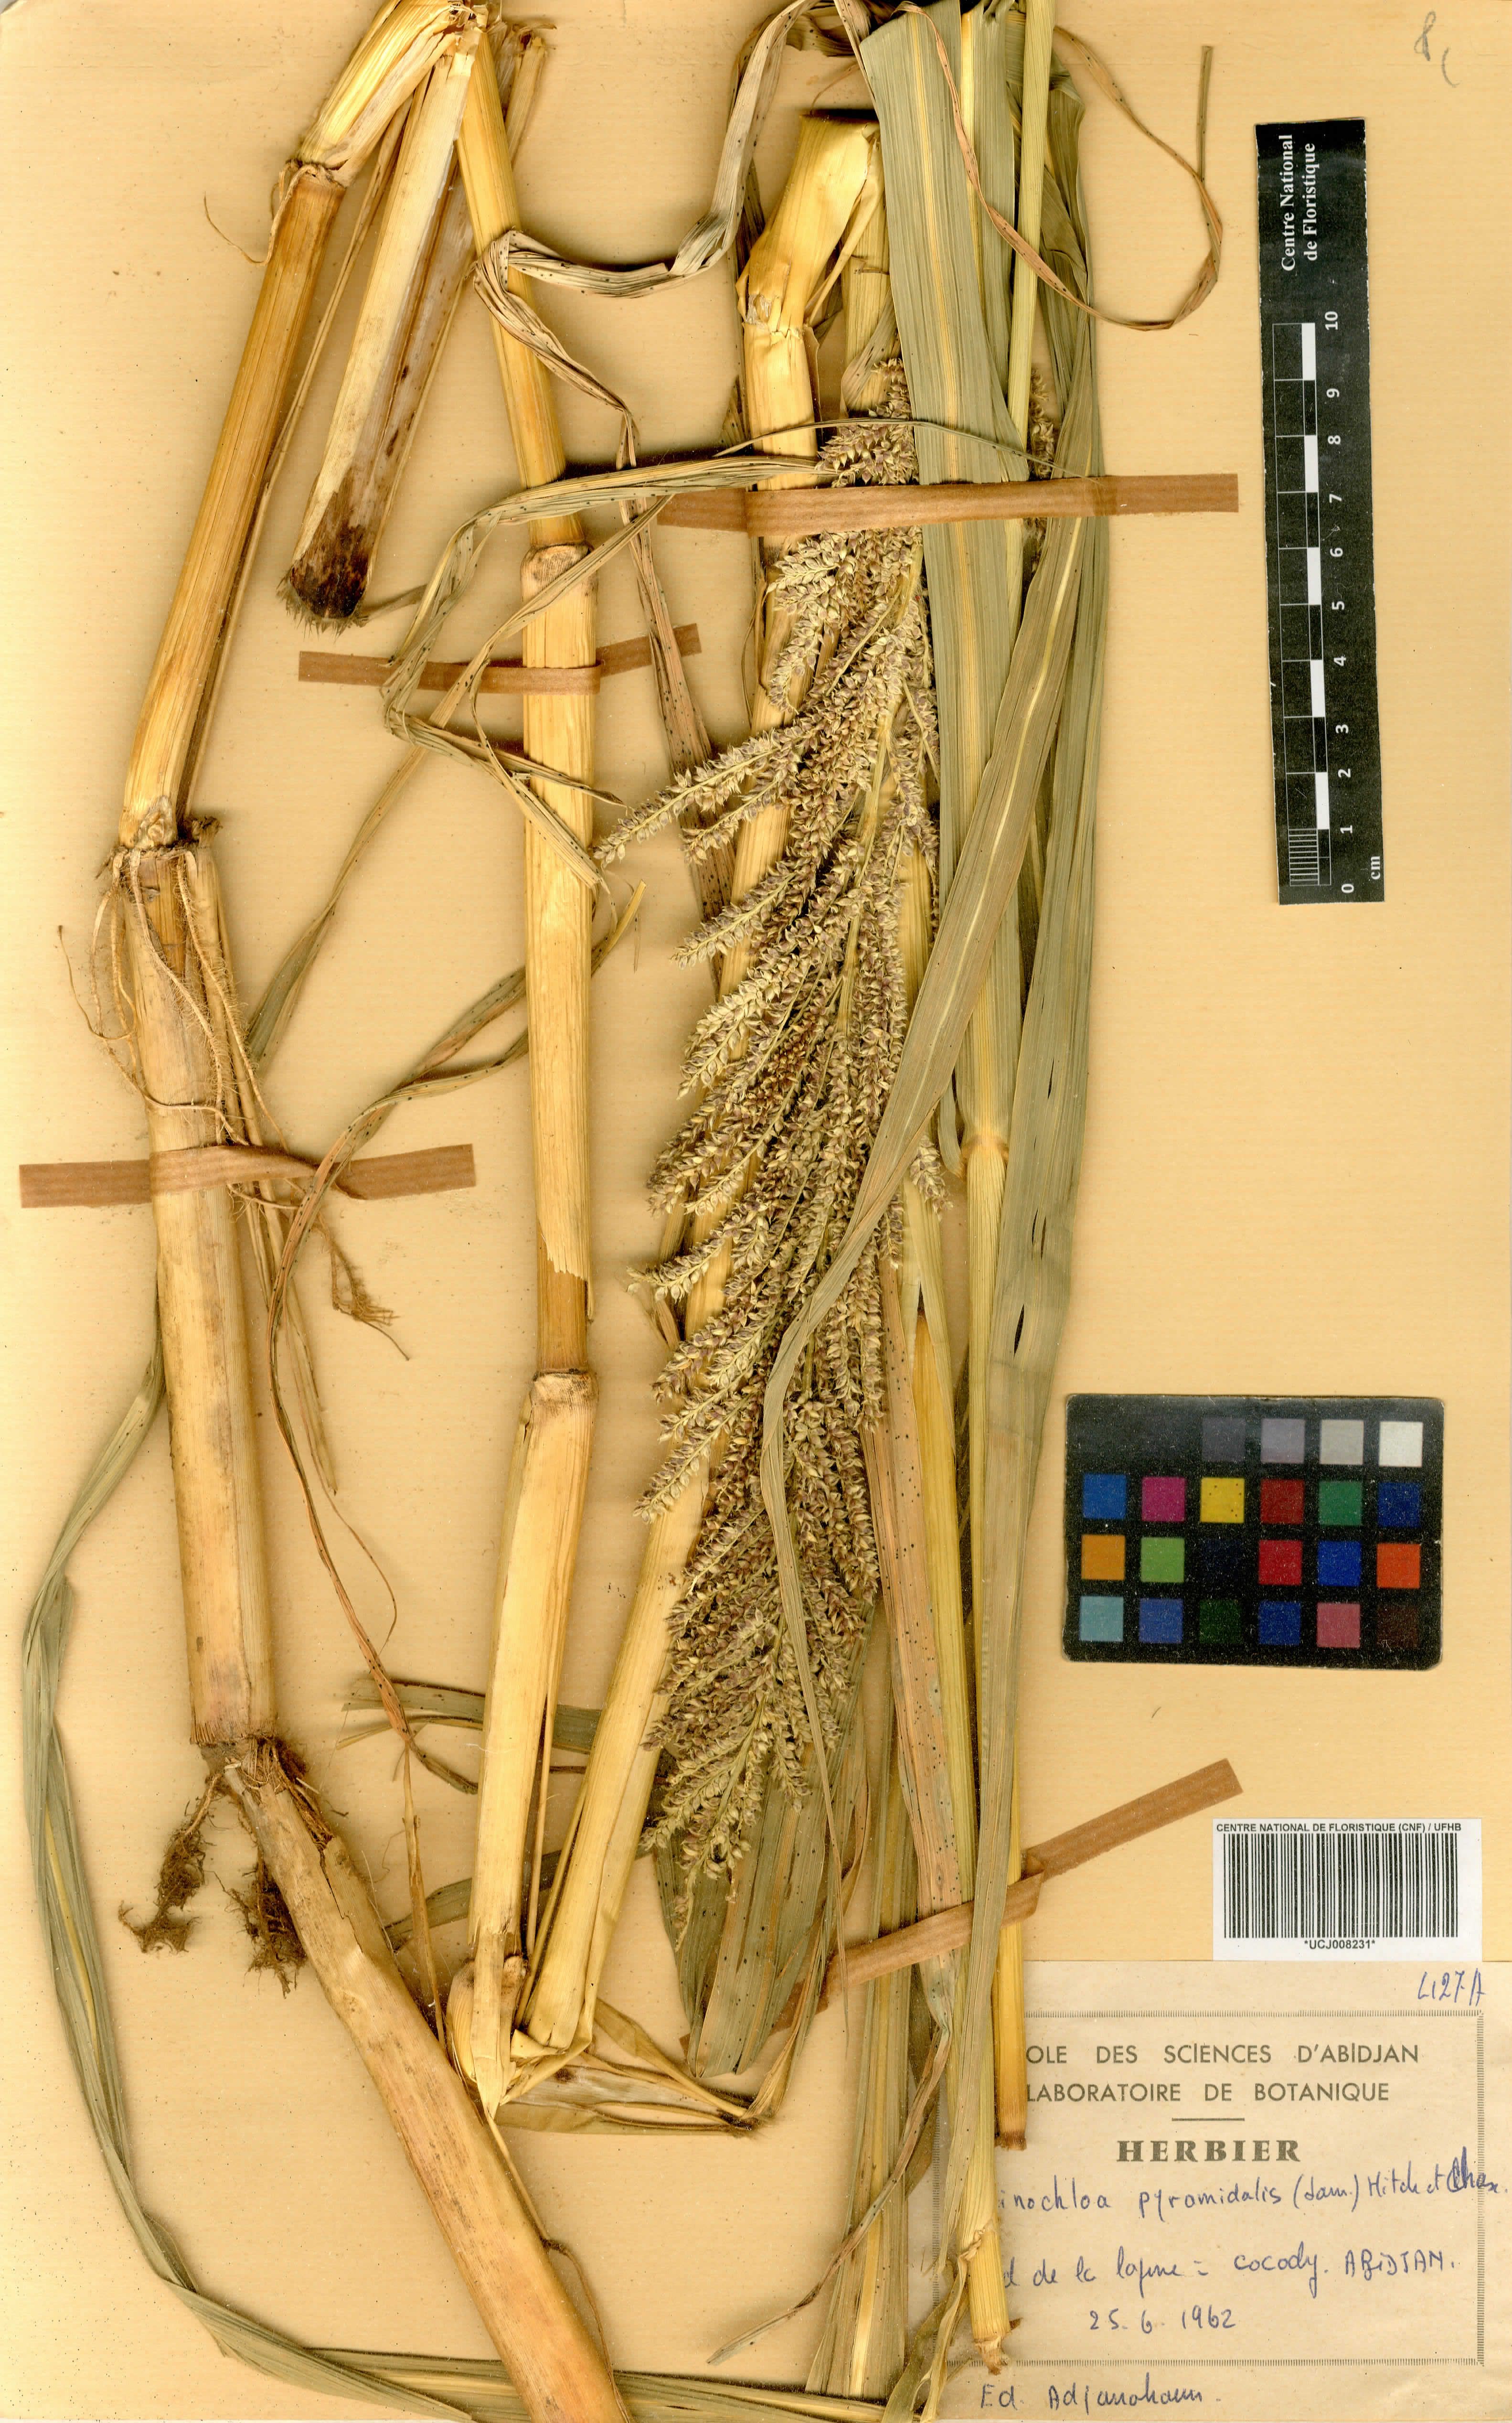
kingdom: Plantae
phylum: Tracheophyta
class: Liliopsida
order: Poales
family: Poaceae
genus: Echinochloa
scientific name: Echinochloa pyramidalis
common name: Antelope grass
